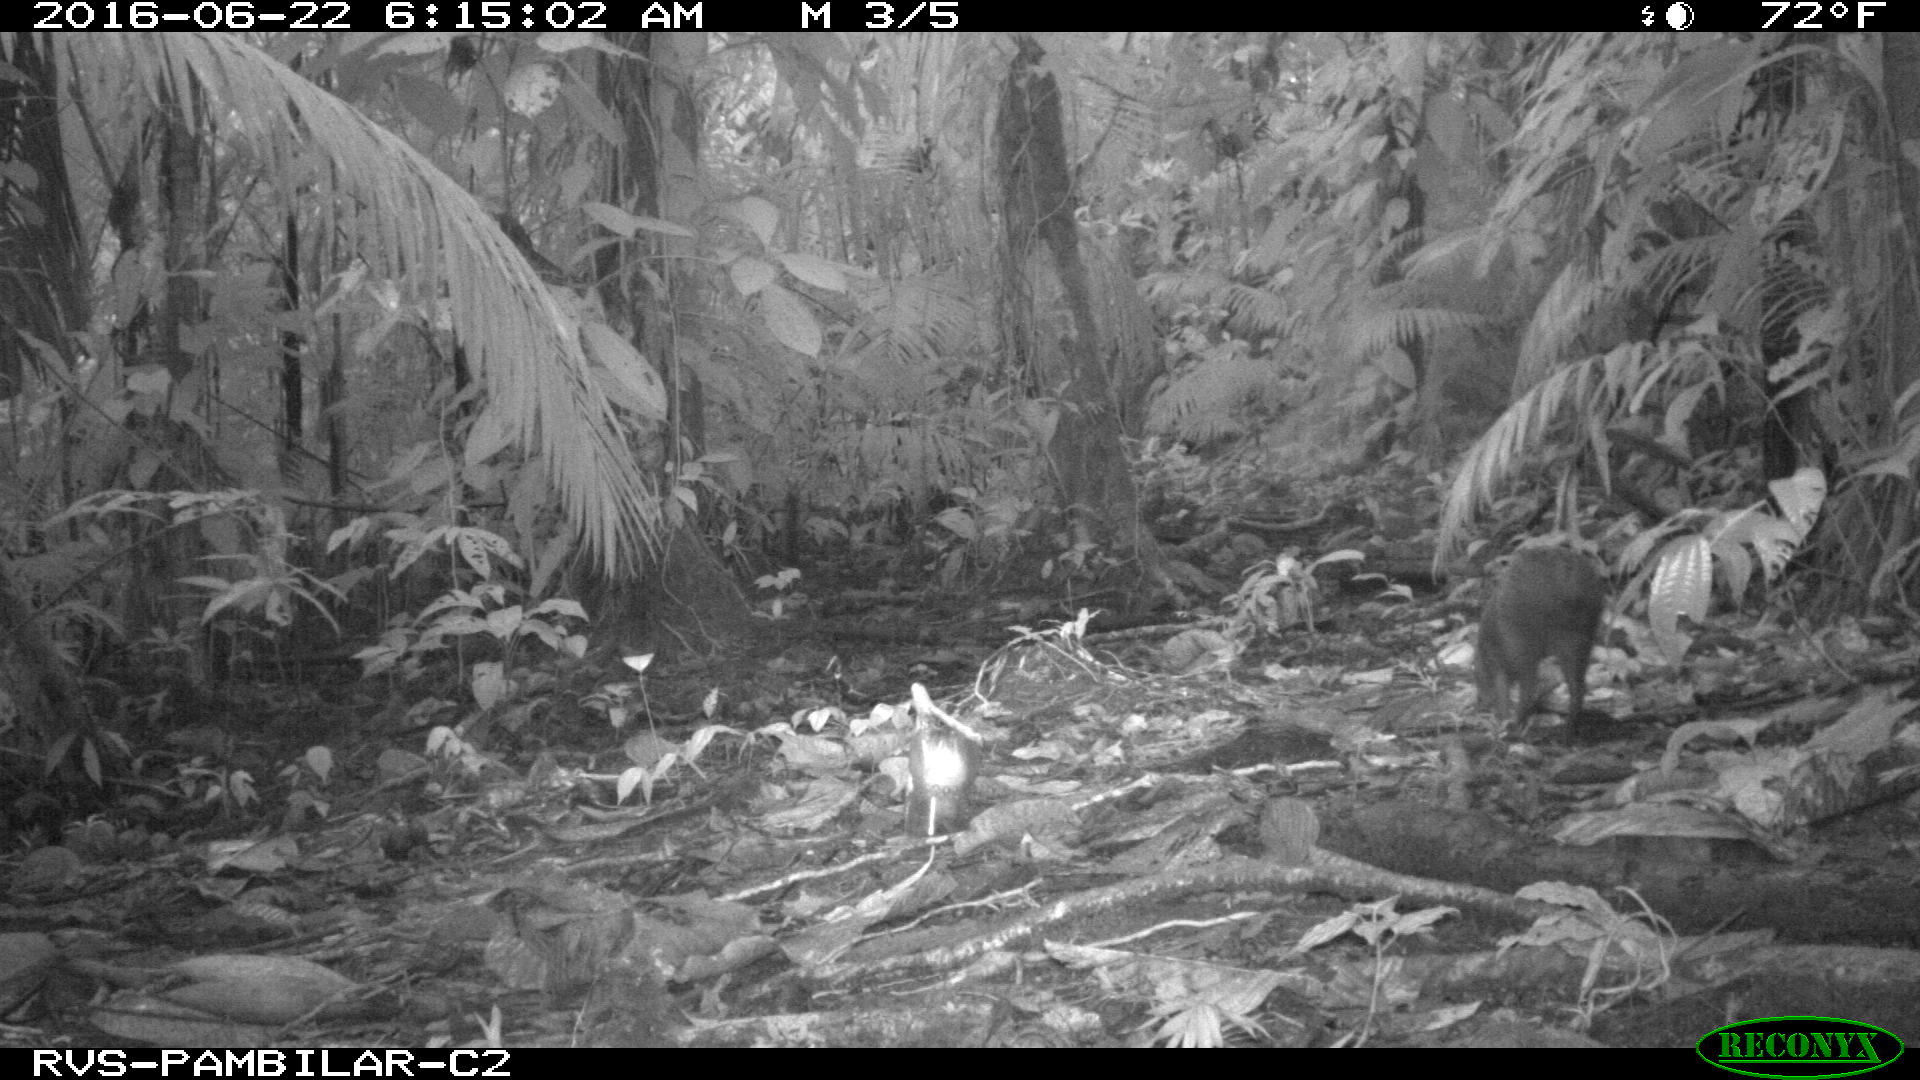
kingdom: Animalia
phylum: Chordata
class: Mammalia
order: Rodentia
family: Dasyproctidae
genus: Dasyprocta
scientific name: Dasyprocta punctata
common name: Central american agouti
